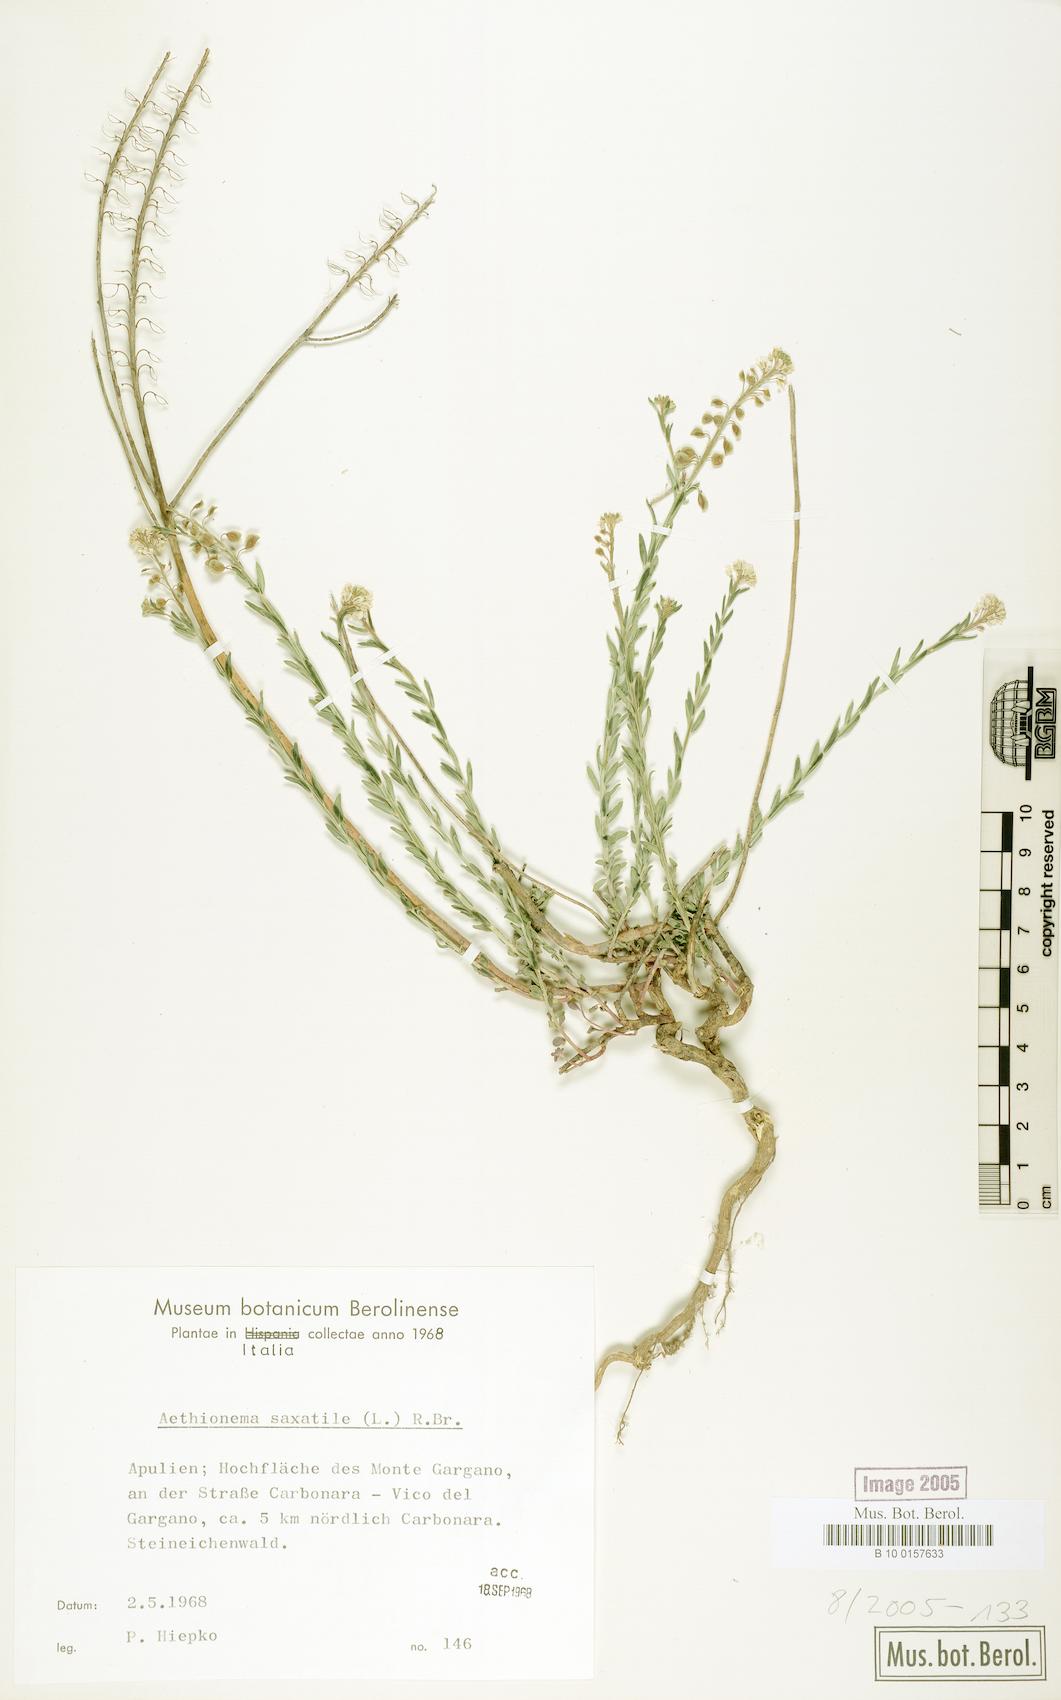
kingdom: Plantae
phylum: Tracheophyta
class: Magnoliopsida
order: Brassicales
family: Brassicaceae
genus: Aethionema
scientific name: Aethionema saxatile
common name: Burnt candytuft
